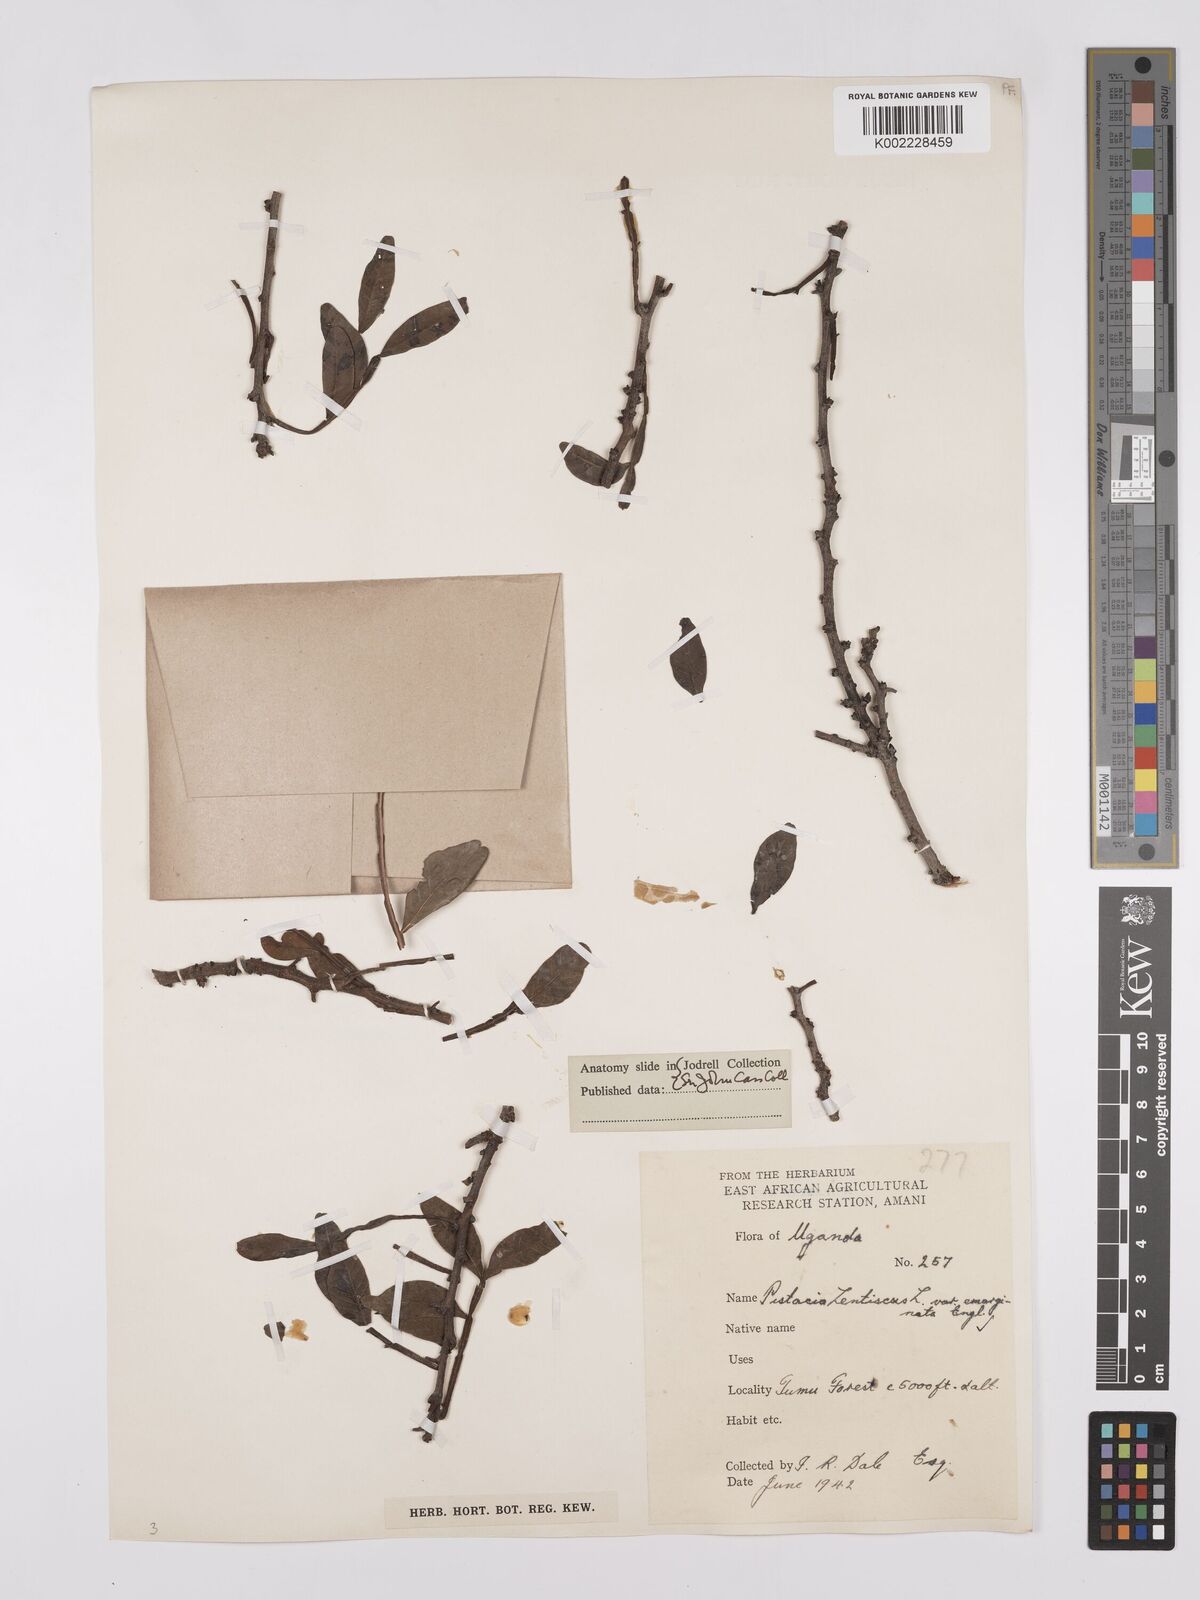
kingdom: Plantae
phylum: Tracheophyta
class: Magnoliopsida
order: Sapindales
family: Anacardiaceae
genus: Pistacia
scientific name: Pistacia lentiscus
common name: Lentisk
